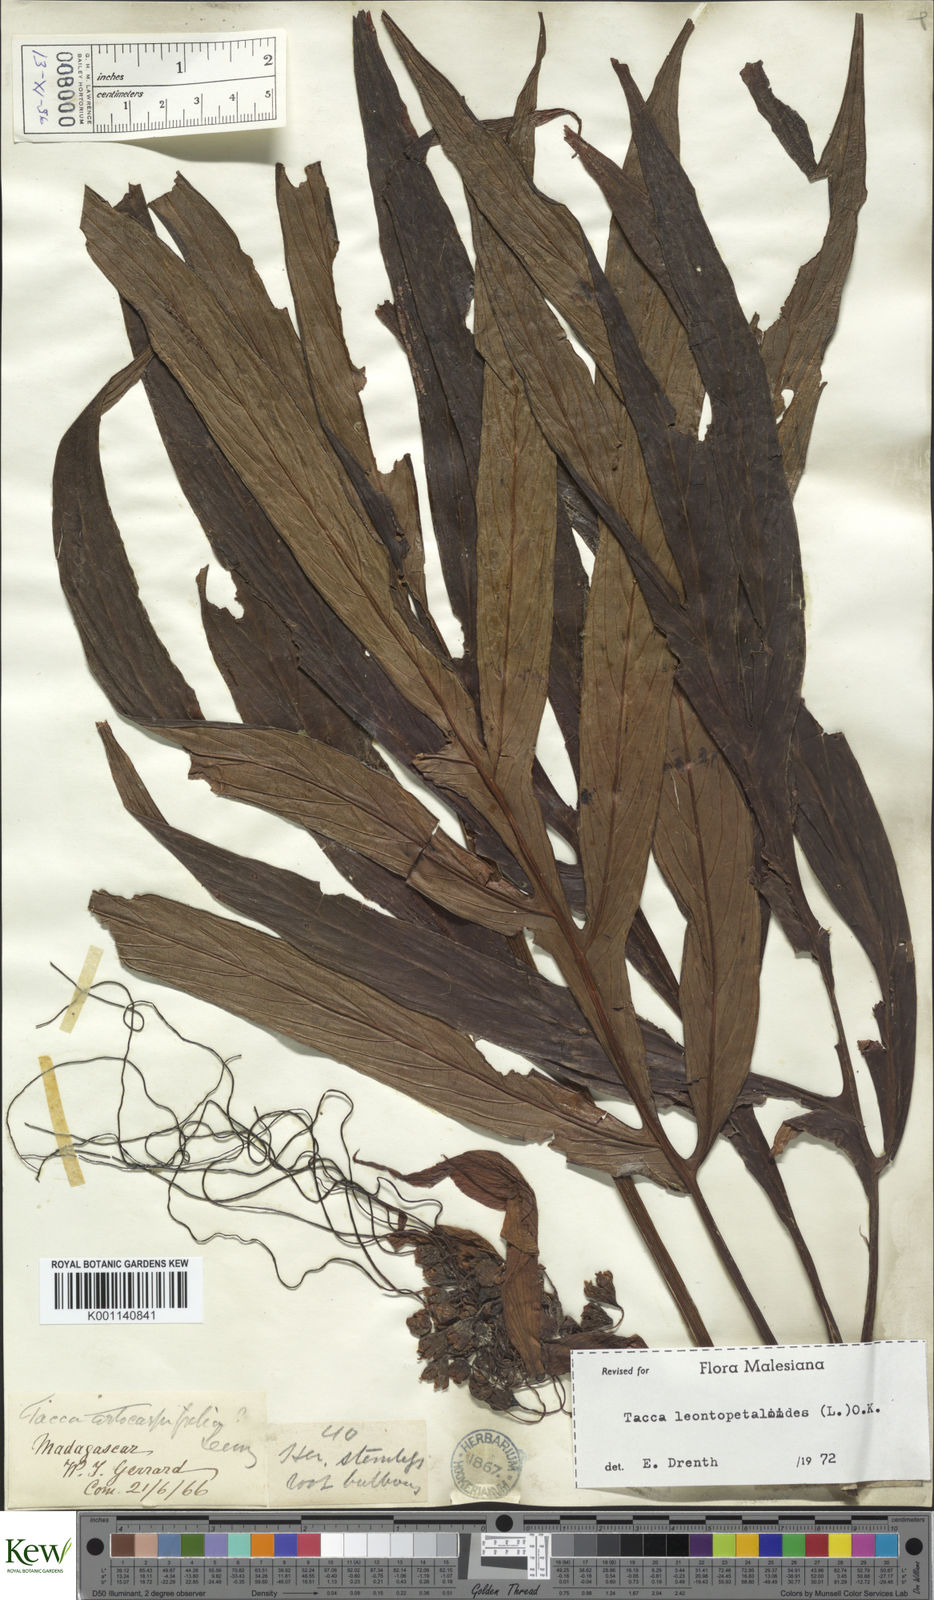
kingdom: Plantae
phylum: Tracheophyta
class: Liliopsida
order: Dioscoreales
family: Dioscoreaceae
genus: Tacca
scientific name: Tacca leontopetaloides
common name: Arrowroot
